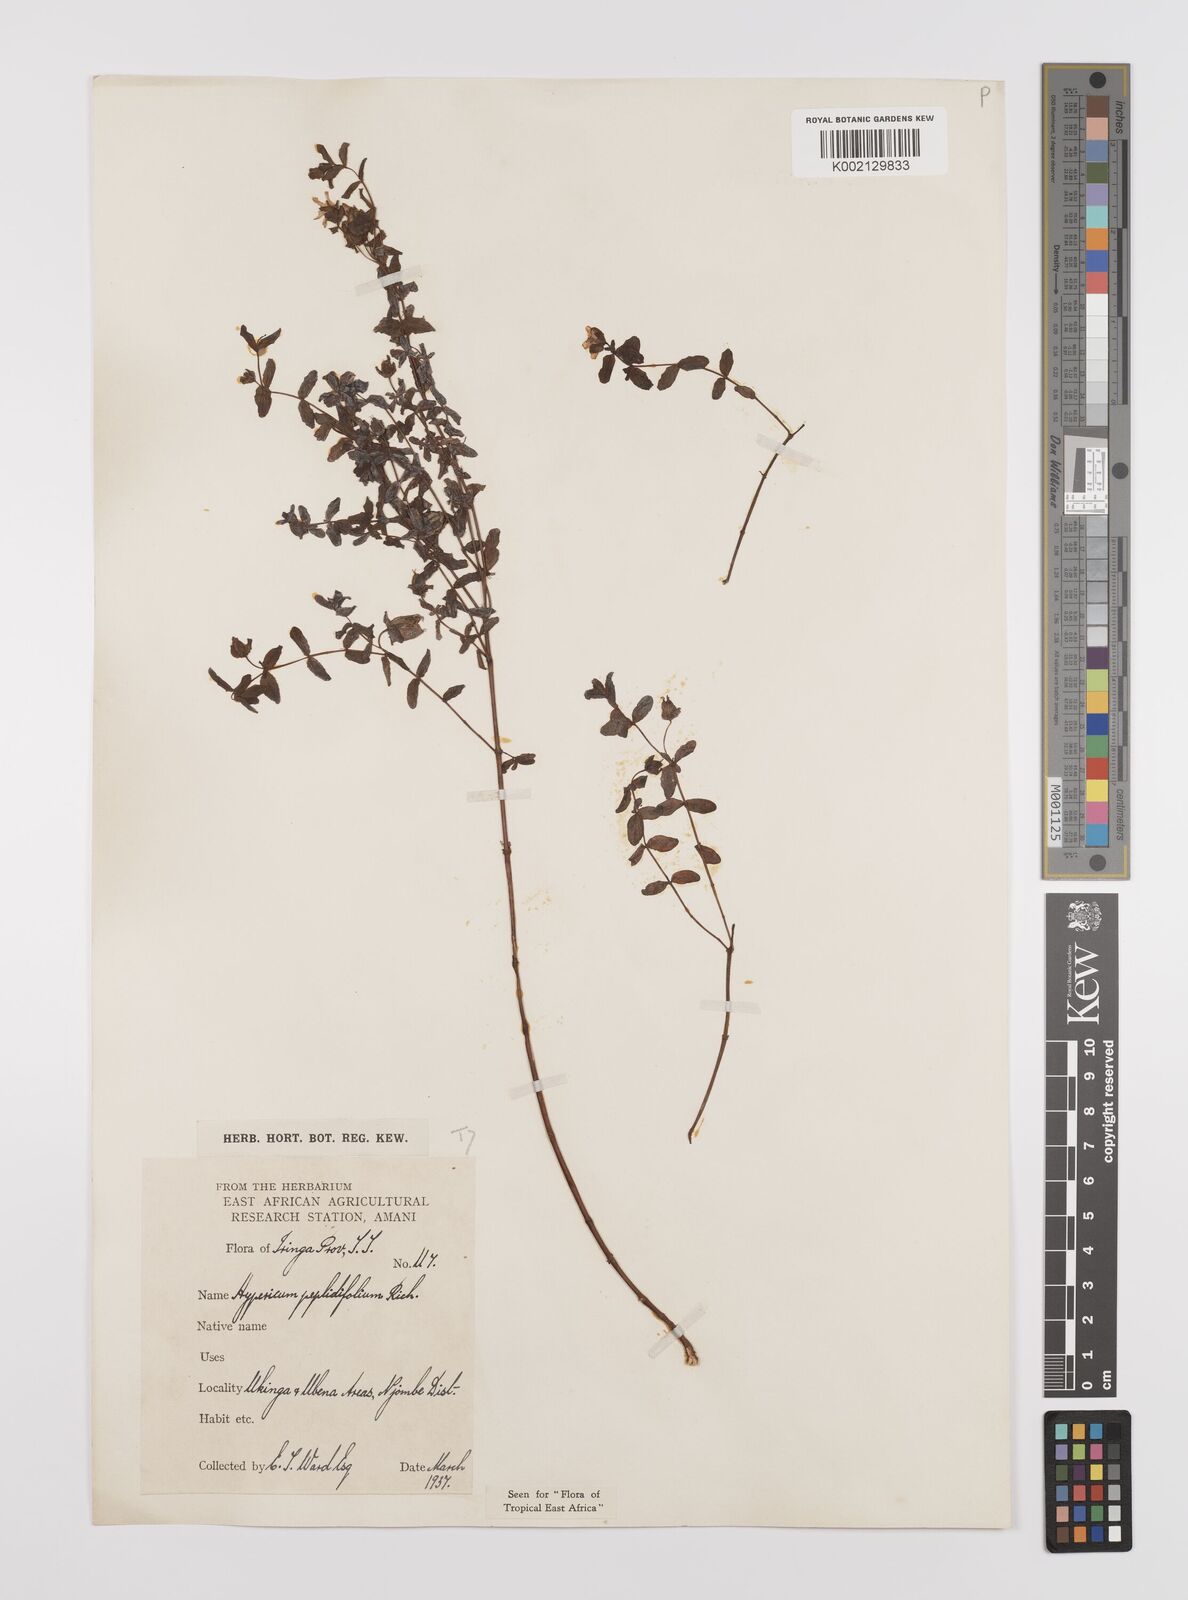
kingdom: Plantae
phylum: Tracheophyta
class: Magnoliopsida
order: Malpighiales
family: Hypericaceae
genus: Hypericum
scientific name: Hypericum peplidifolium
